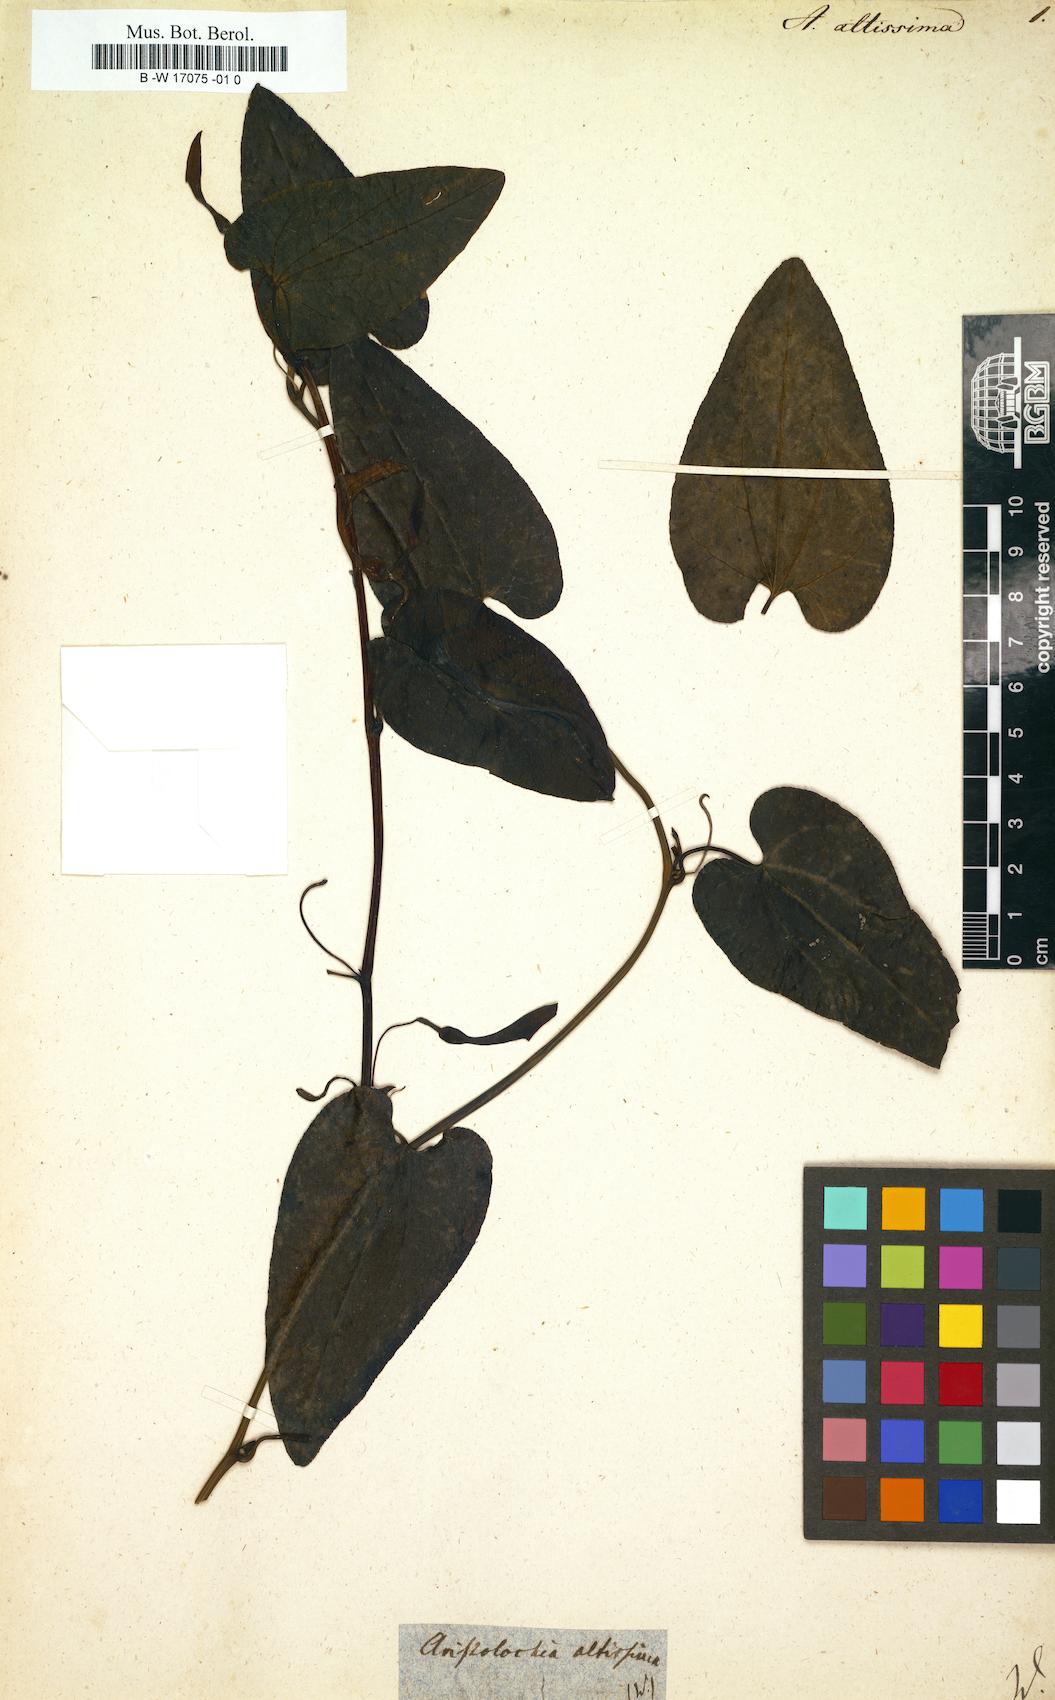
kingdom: Plantae
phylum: Tracheophyta
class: Magnoliopsida
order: Piperales
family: Aristolochiaceae
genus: Aristolochia
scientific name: Aristolochia sempervirens
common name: Long birthwort
